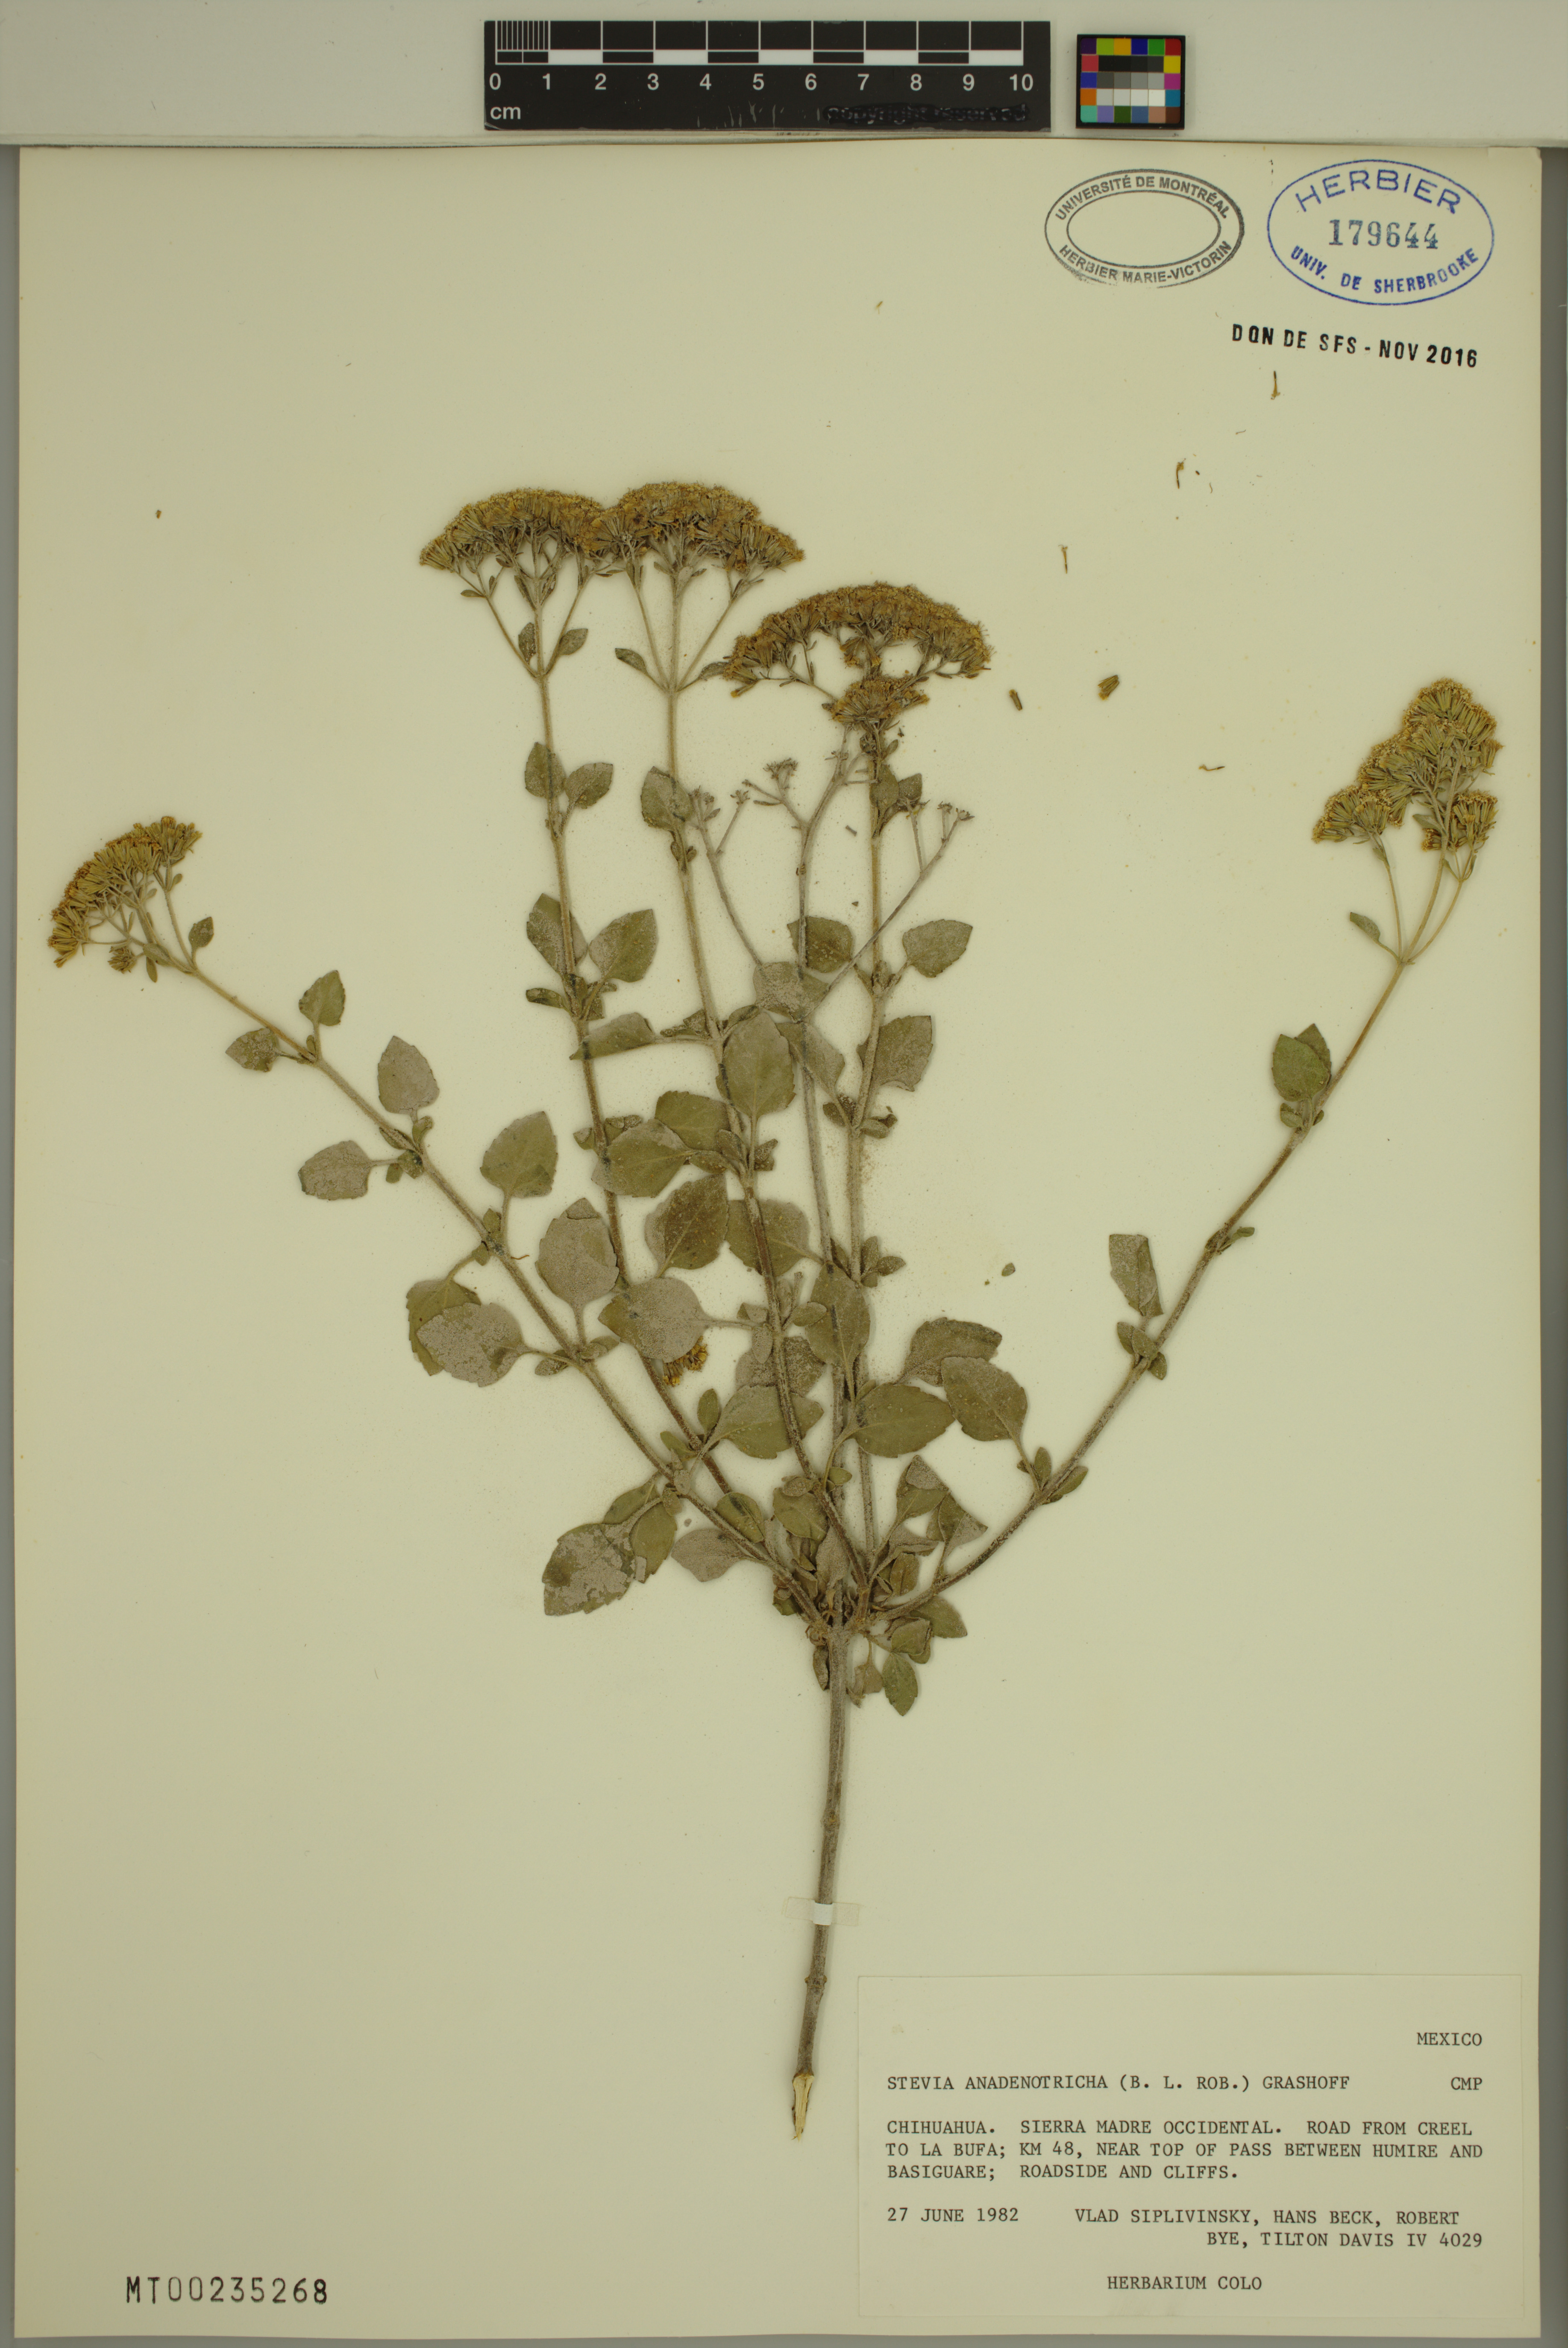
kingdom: Plantae
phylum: Tracheophyta
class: Magnoliopsida
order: Asterales
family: Asteraceae
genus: Stevia
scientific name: Stevia anadenotricha
